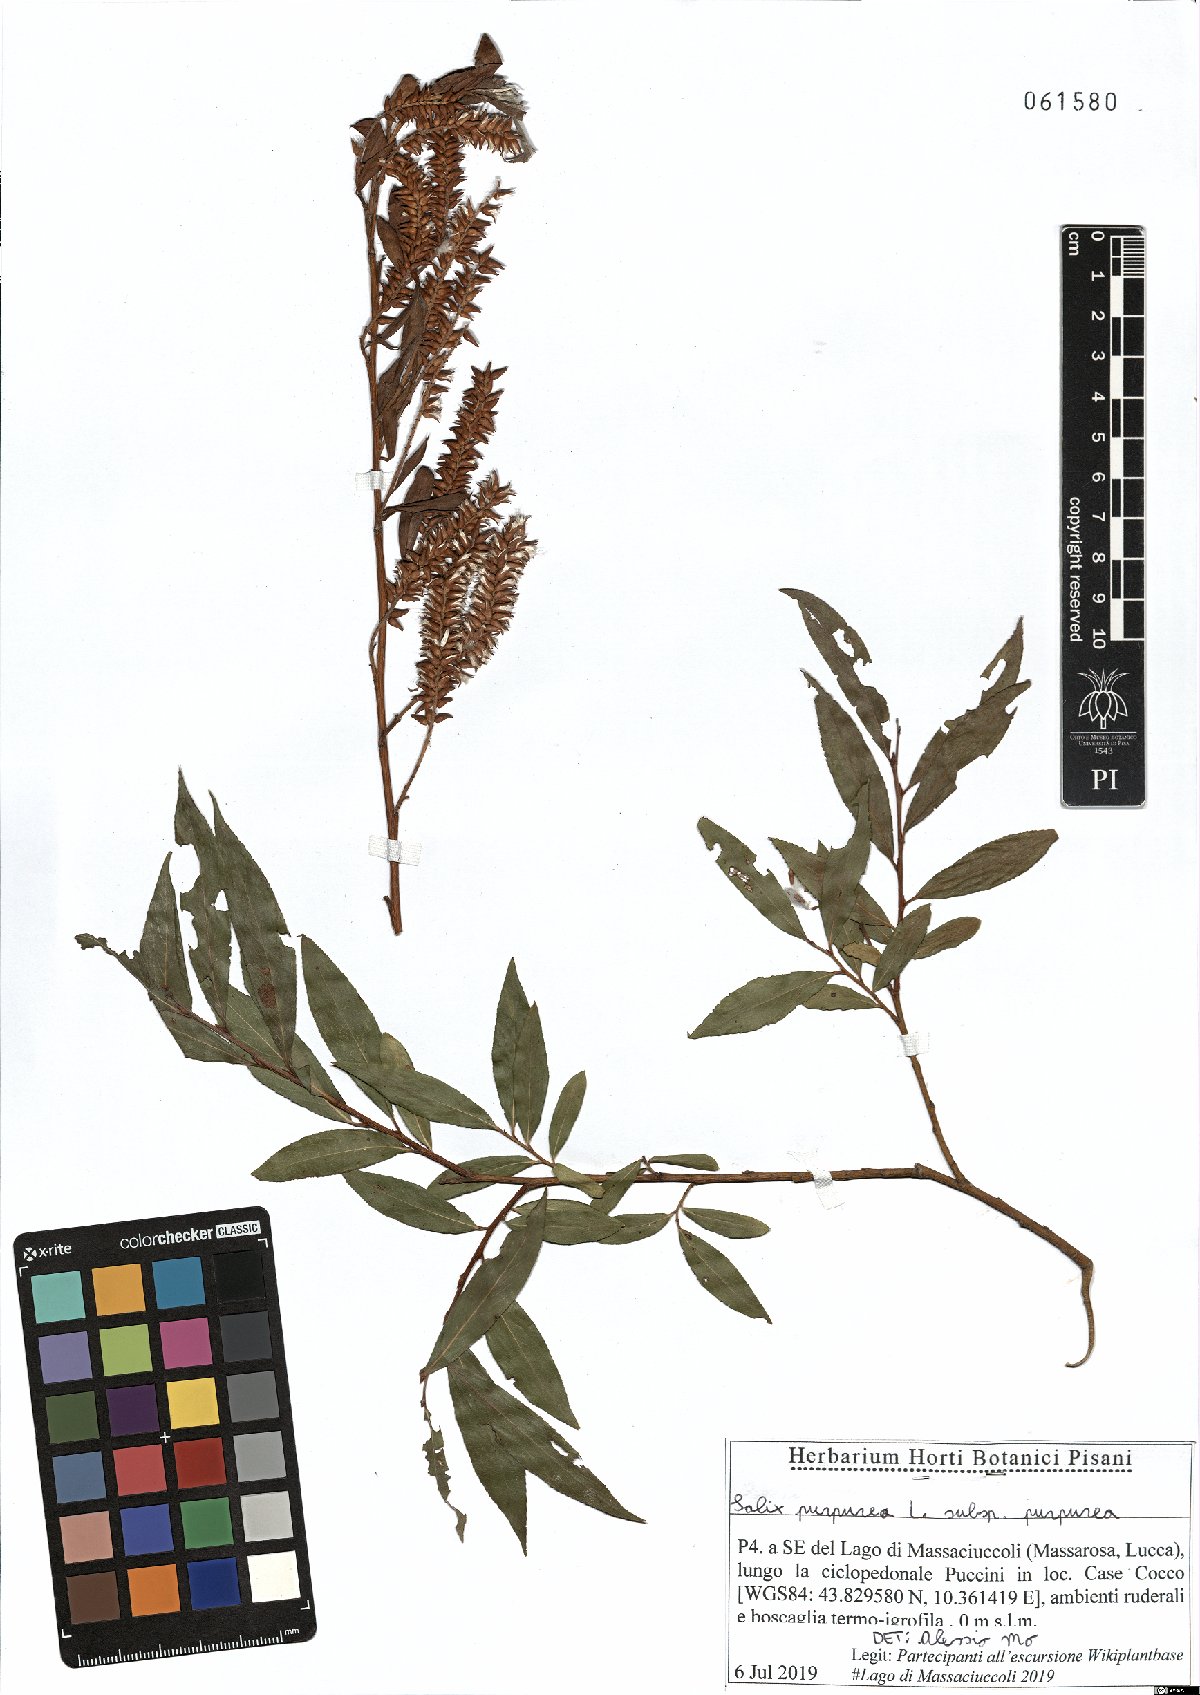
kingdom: Plantae
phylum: Tracheophyta
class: Magnoliopsida
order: Malpighiales
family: Salicaceae
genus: Salix
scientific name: Salix purpurea
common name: Purple willow
